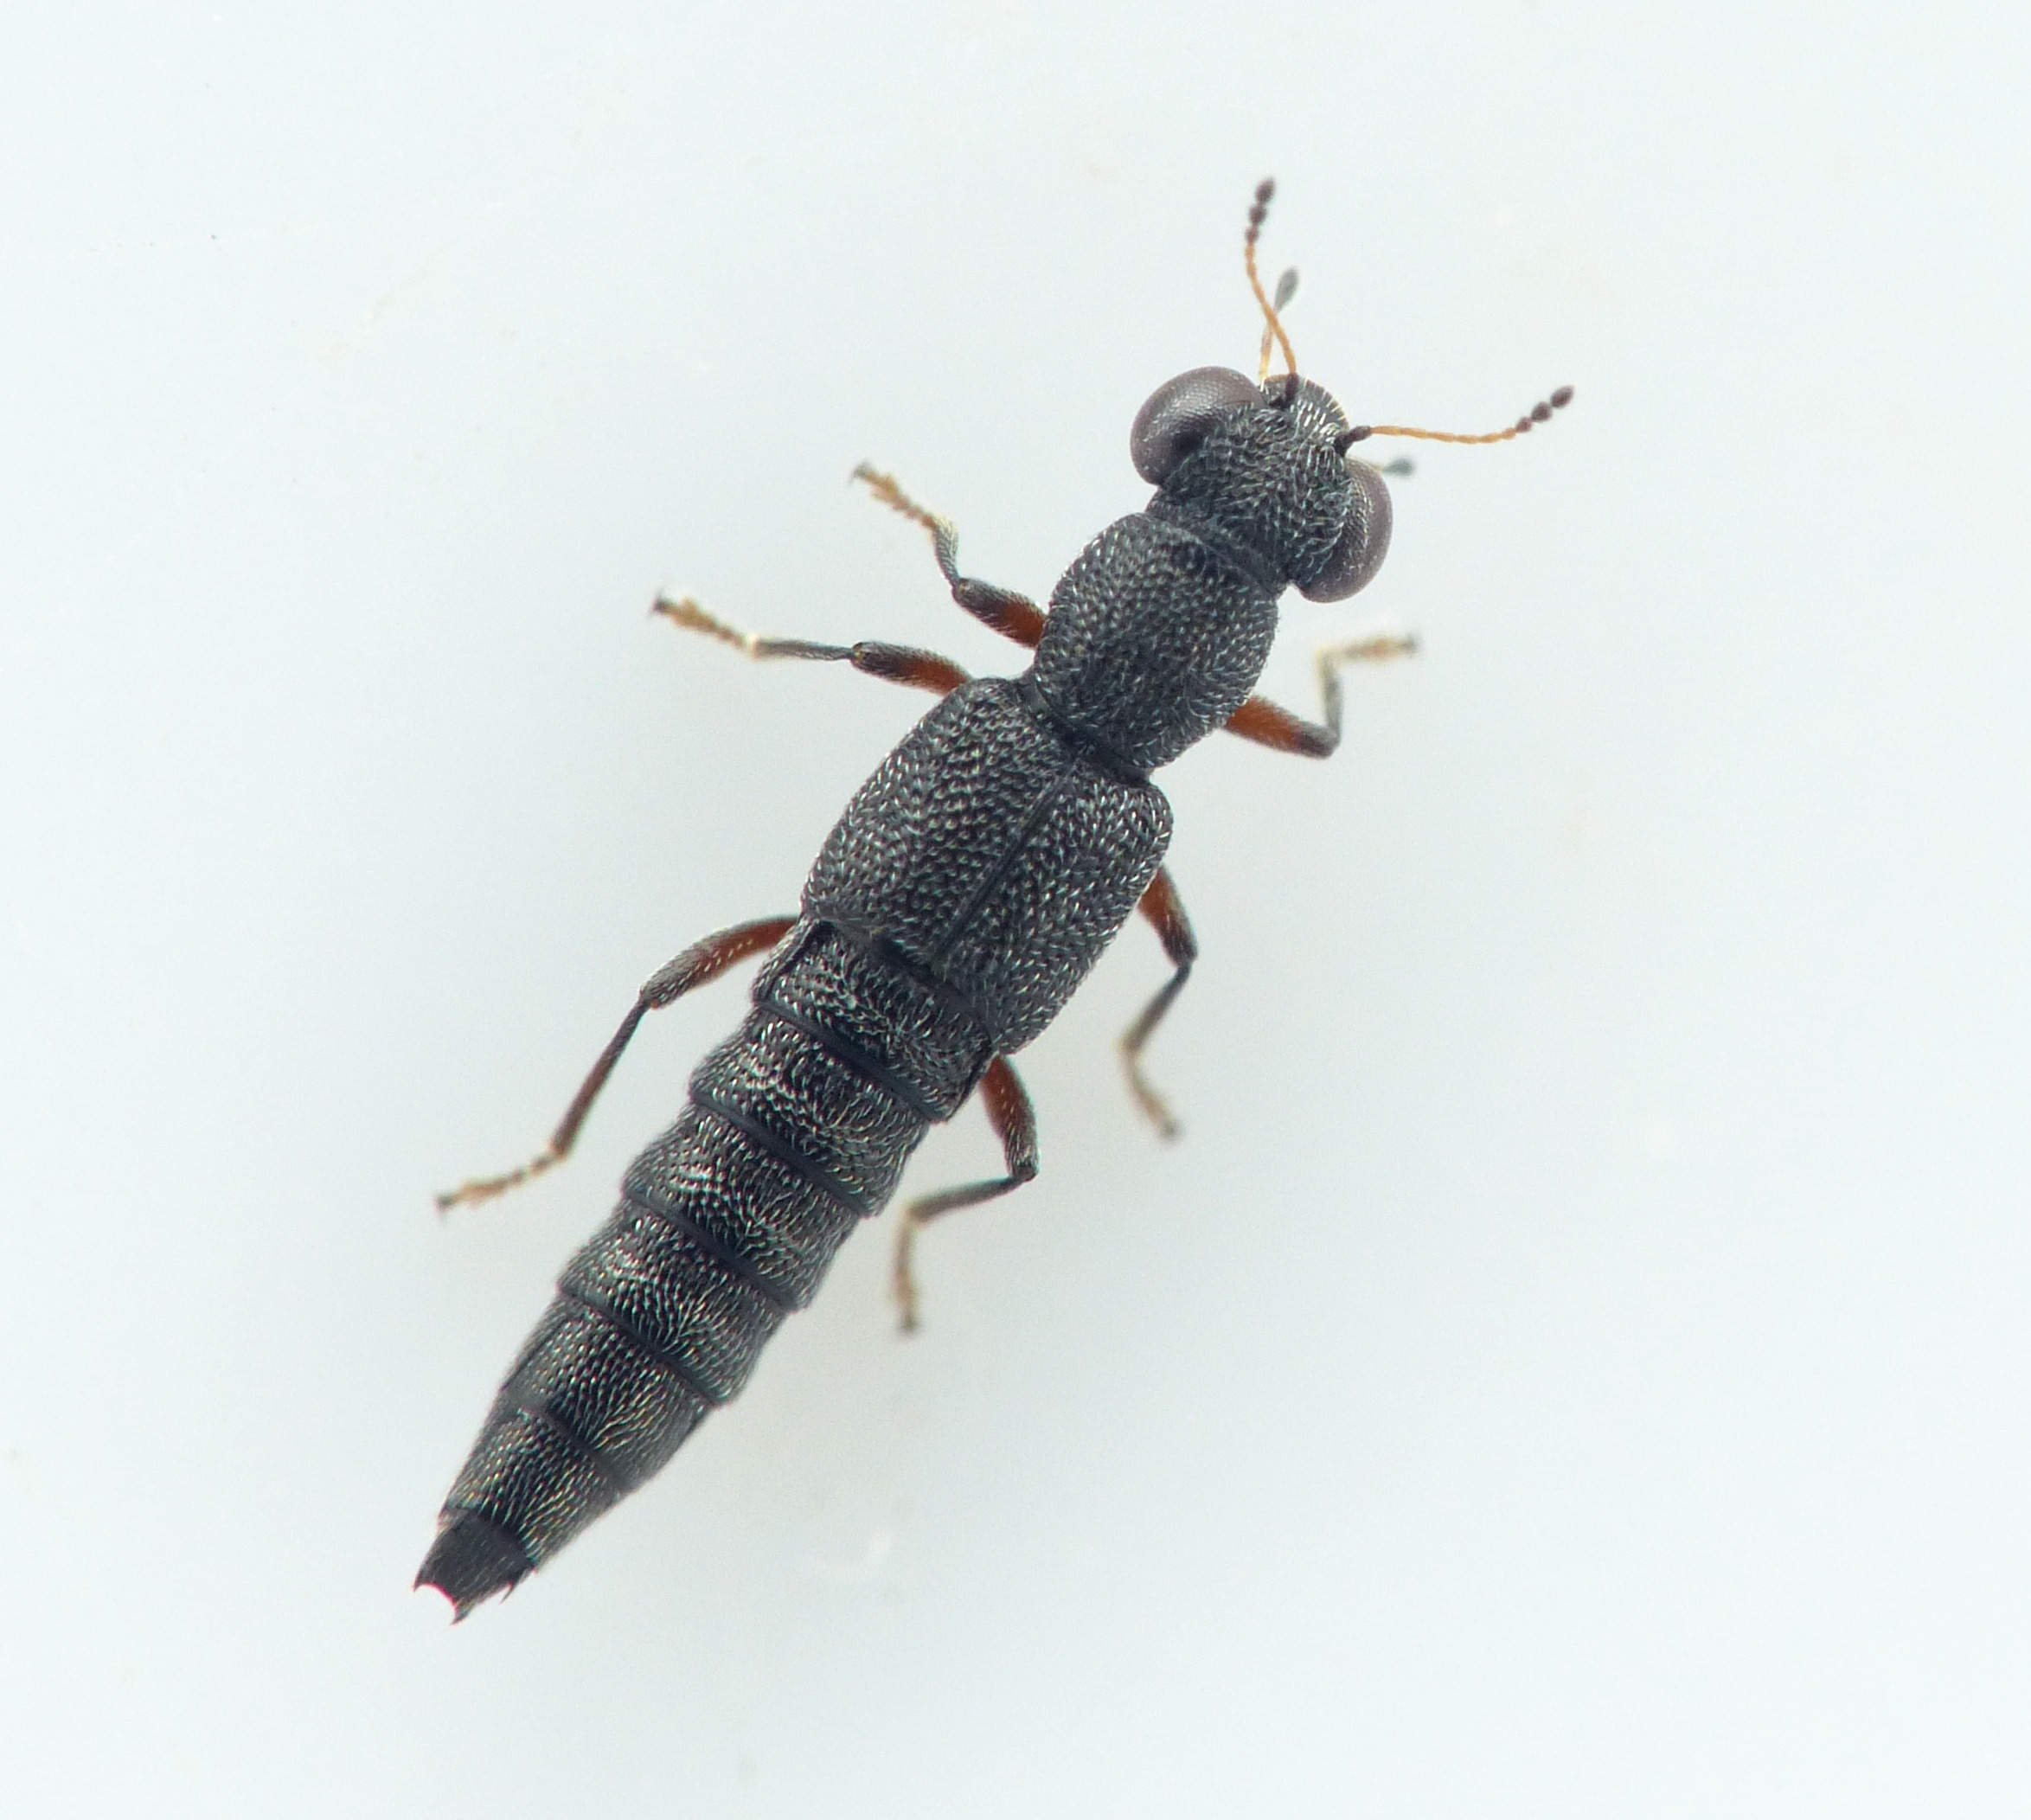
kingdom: Animalia
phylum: Arthropoda
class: Insecta
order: Coleoptera
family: Staphylinidae
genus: Stenus
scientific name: Stenus fulvicornis
